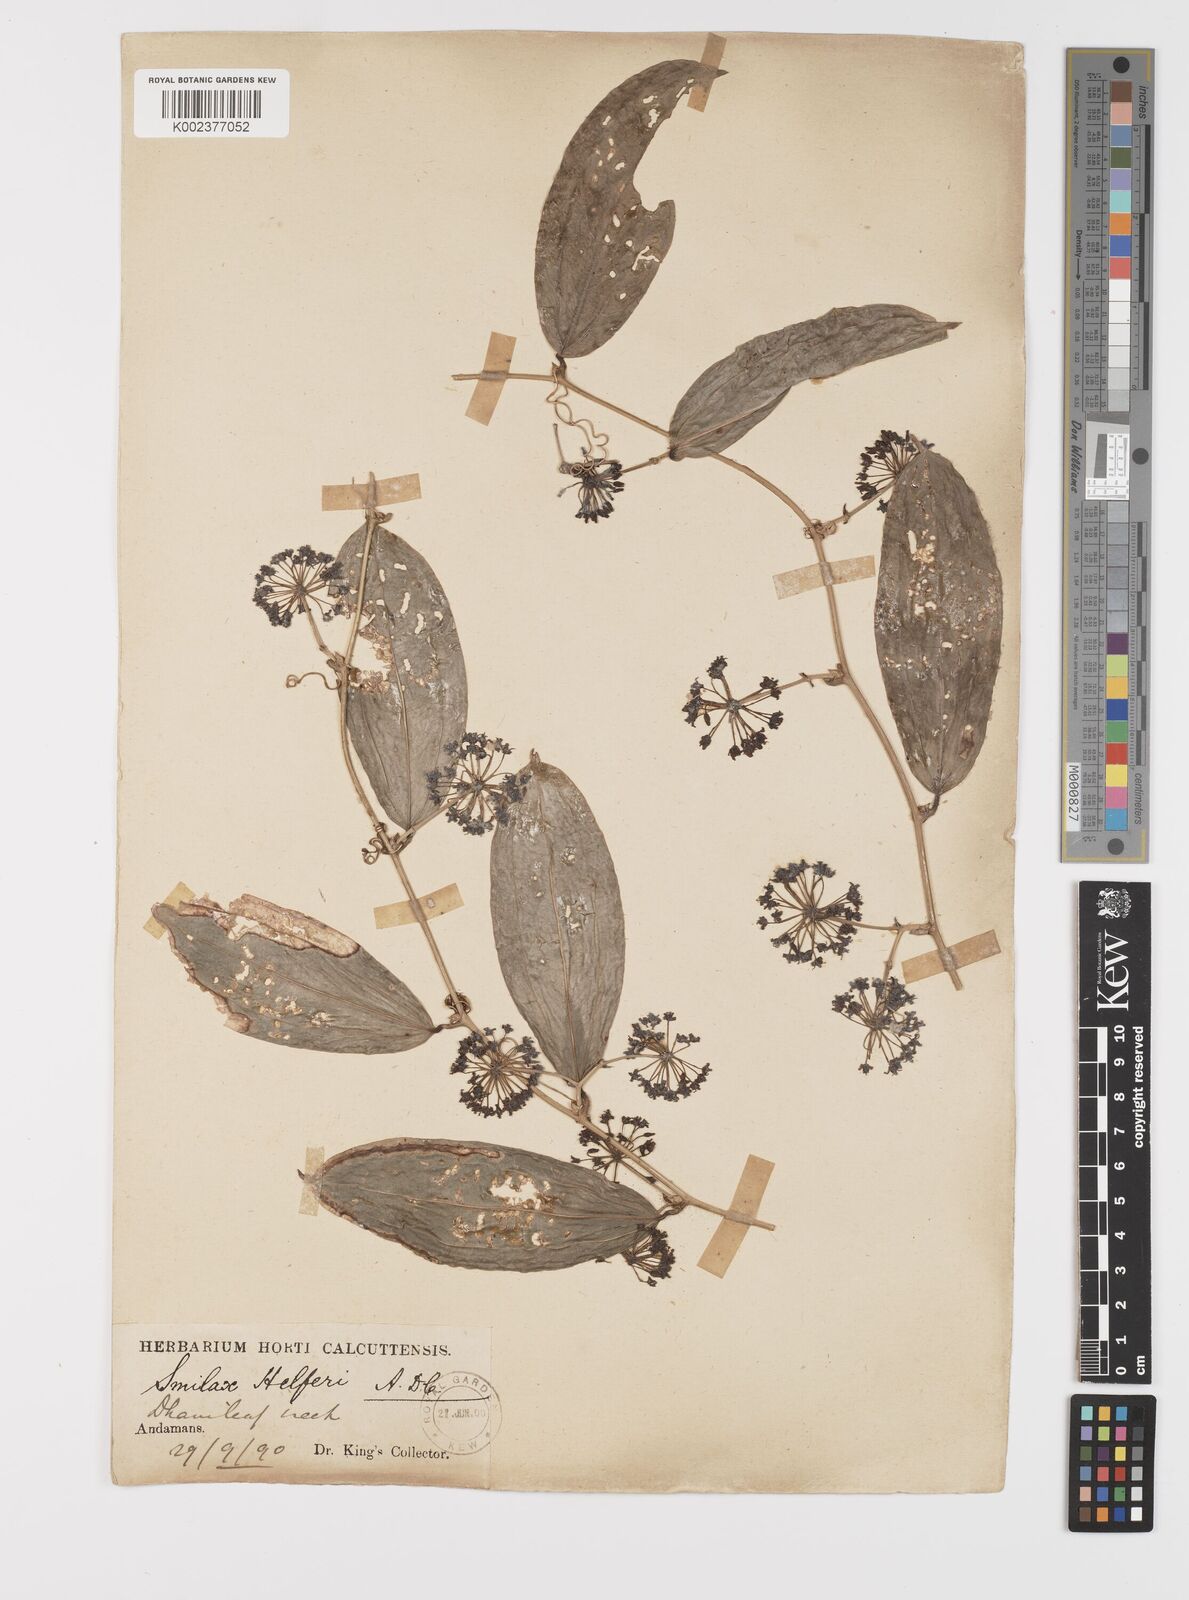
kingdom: Plantae
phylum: Tracheophyta
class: Liliopsida
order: Liliales
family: Smilacaceae
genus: Smilax
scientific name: Smilax luzonensis
